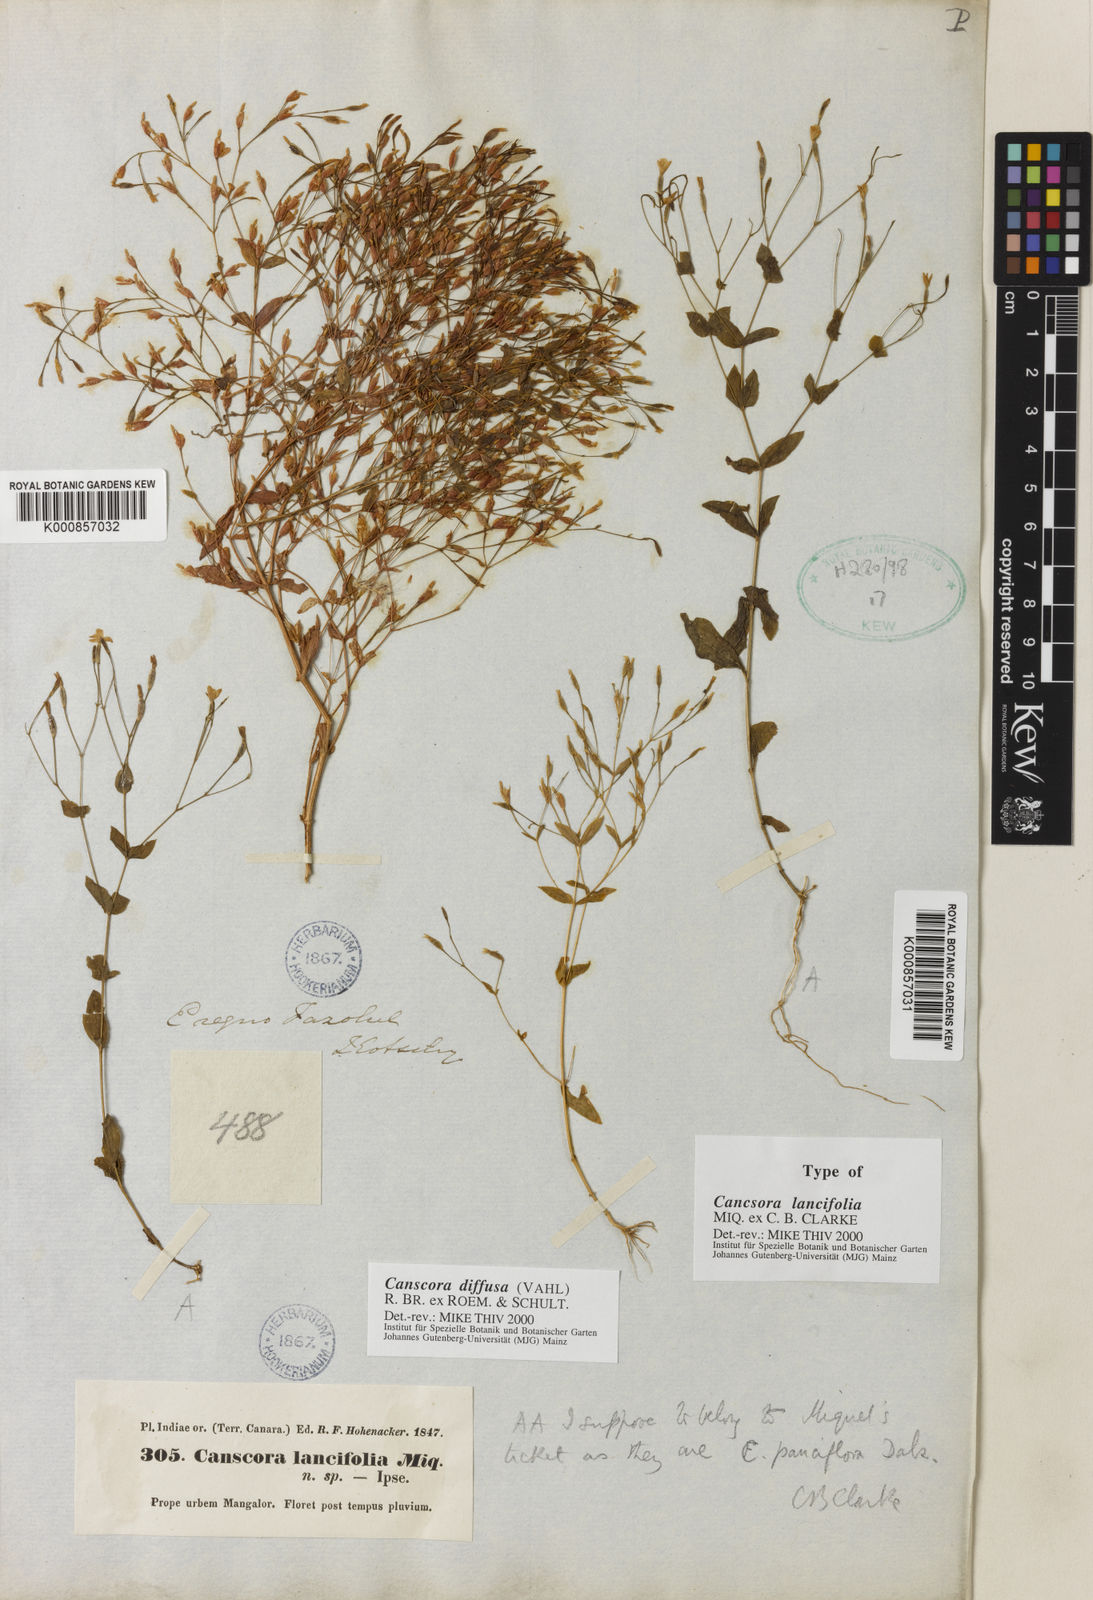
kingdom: Plantae
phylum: Tracheophyta
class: Magnoliopsida
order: Gentianales
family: Gentianaceae
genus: Canscora
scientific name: Canscora diffusa
